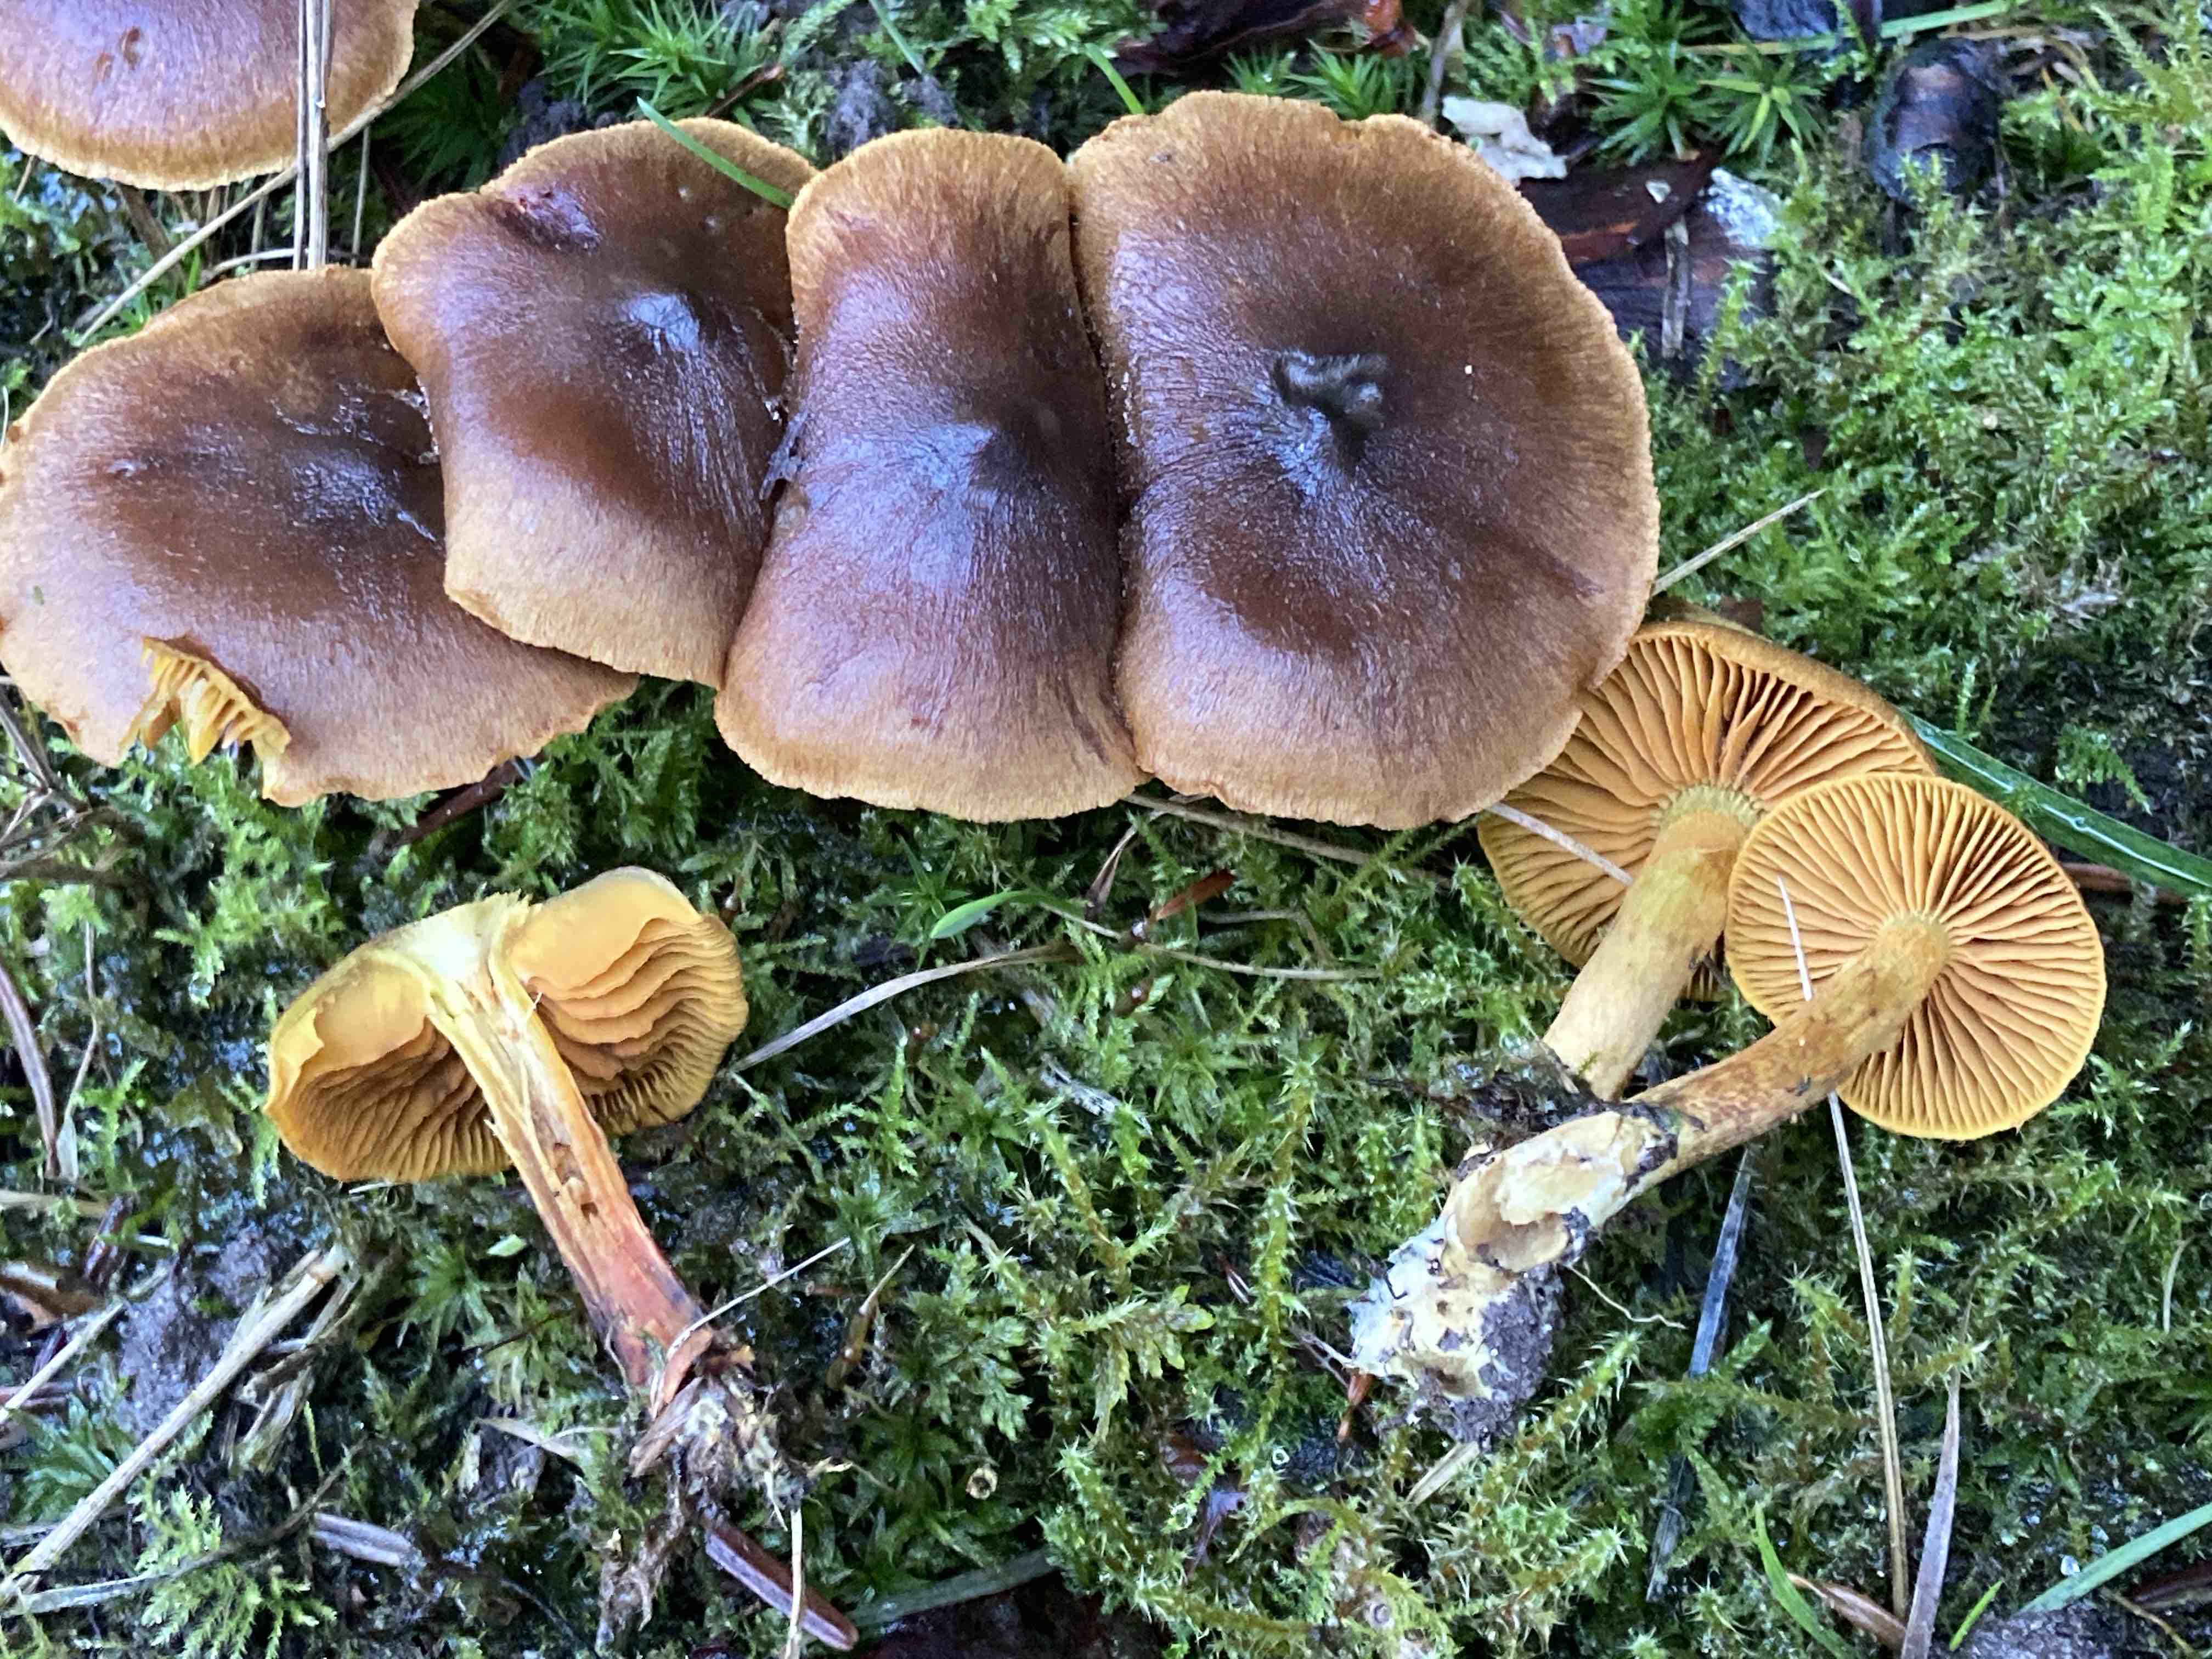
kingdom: Fungi
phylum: Basidiomycota
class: Agaricomycetes
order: Agaricales
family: Cortinariaceae
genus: Cortinarius
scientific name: Cortinarius cinnamomeus
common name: kanel-slørhat
